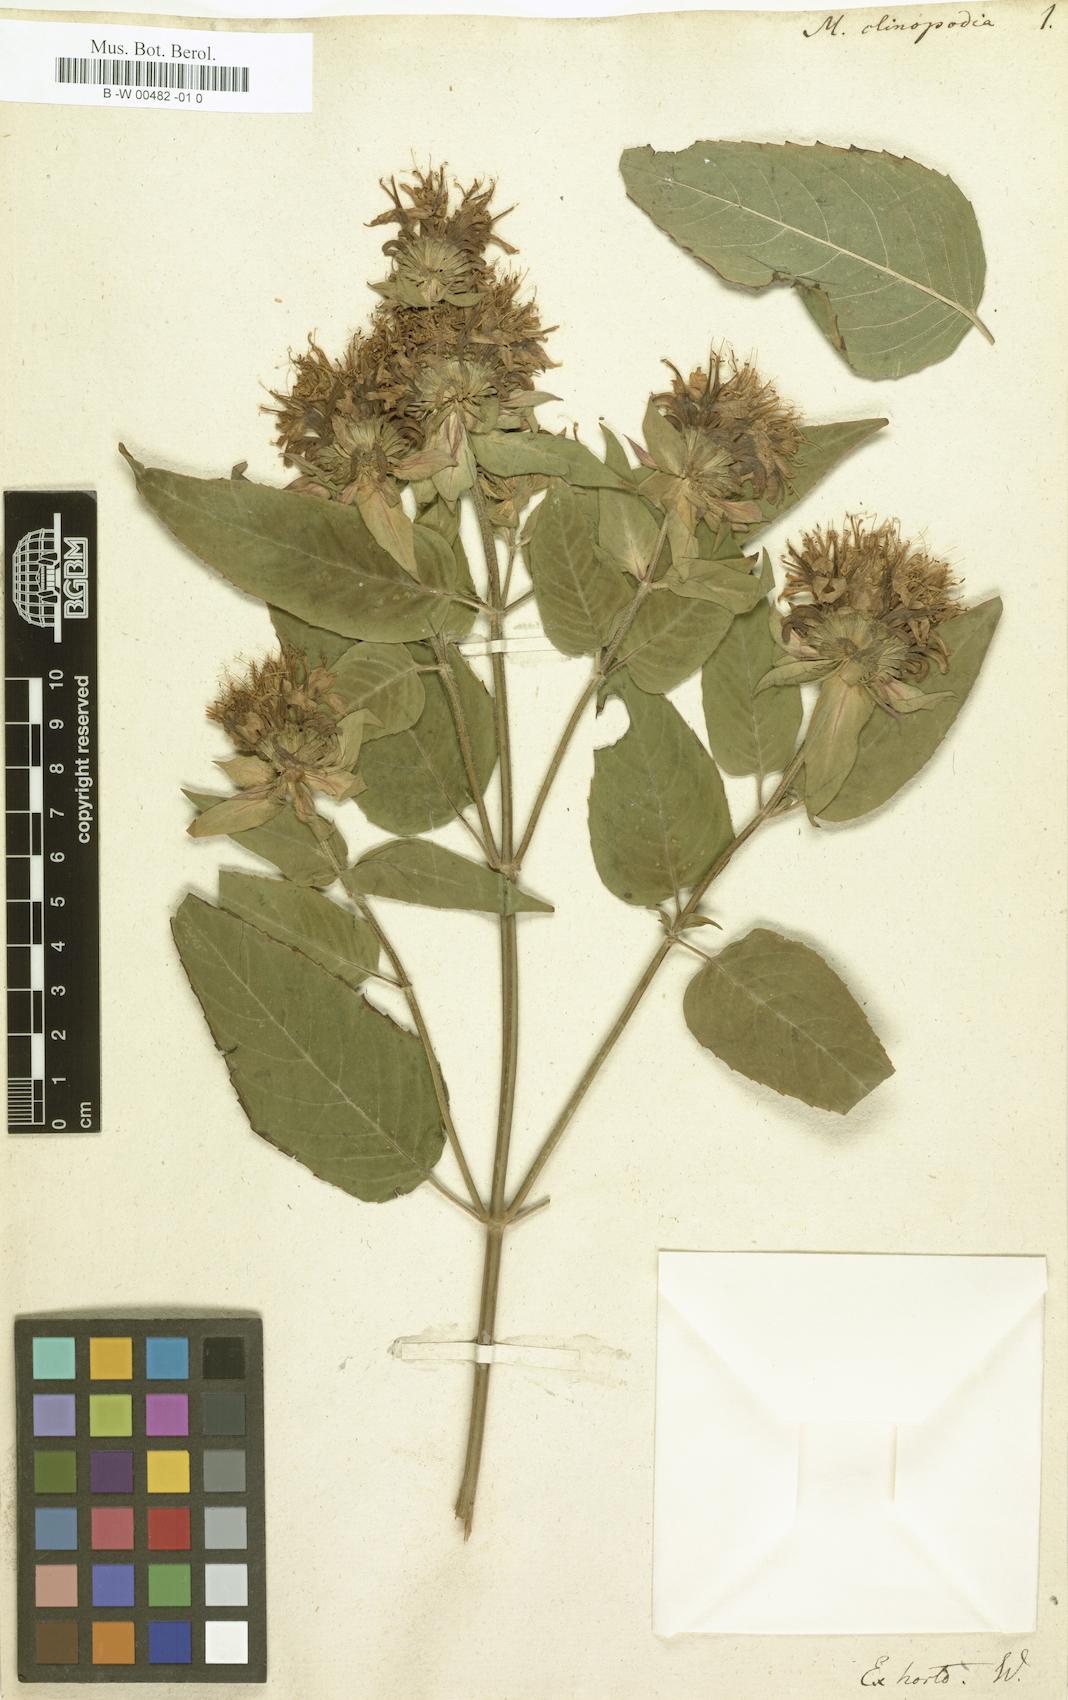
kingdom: Plantae
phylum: Tracheophyta
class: Magnoliopsida
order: Lamiales
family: Lamiaceae
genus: Monarda
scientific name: Monarda clinopodia
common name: Basil beebalm
